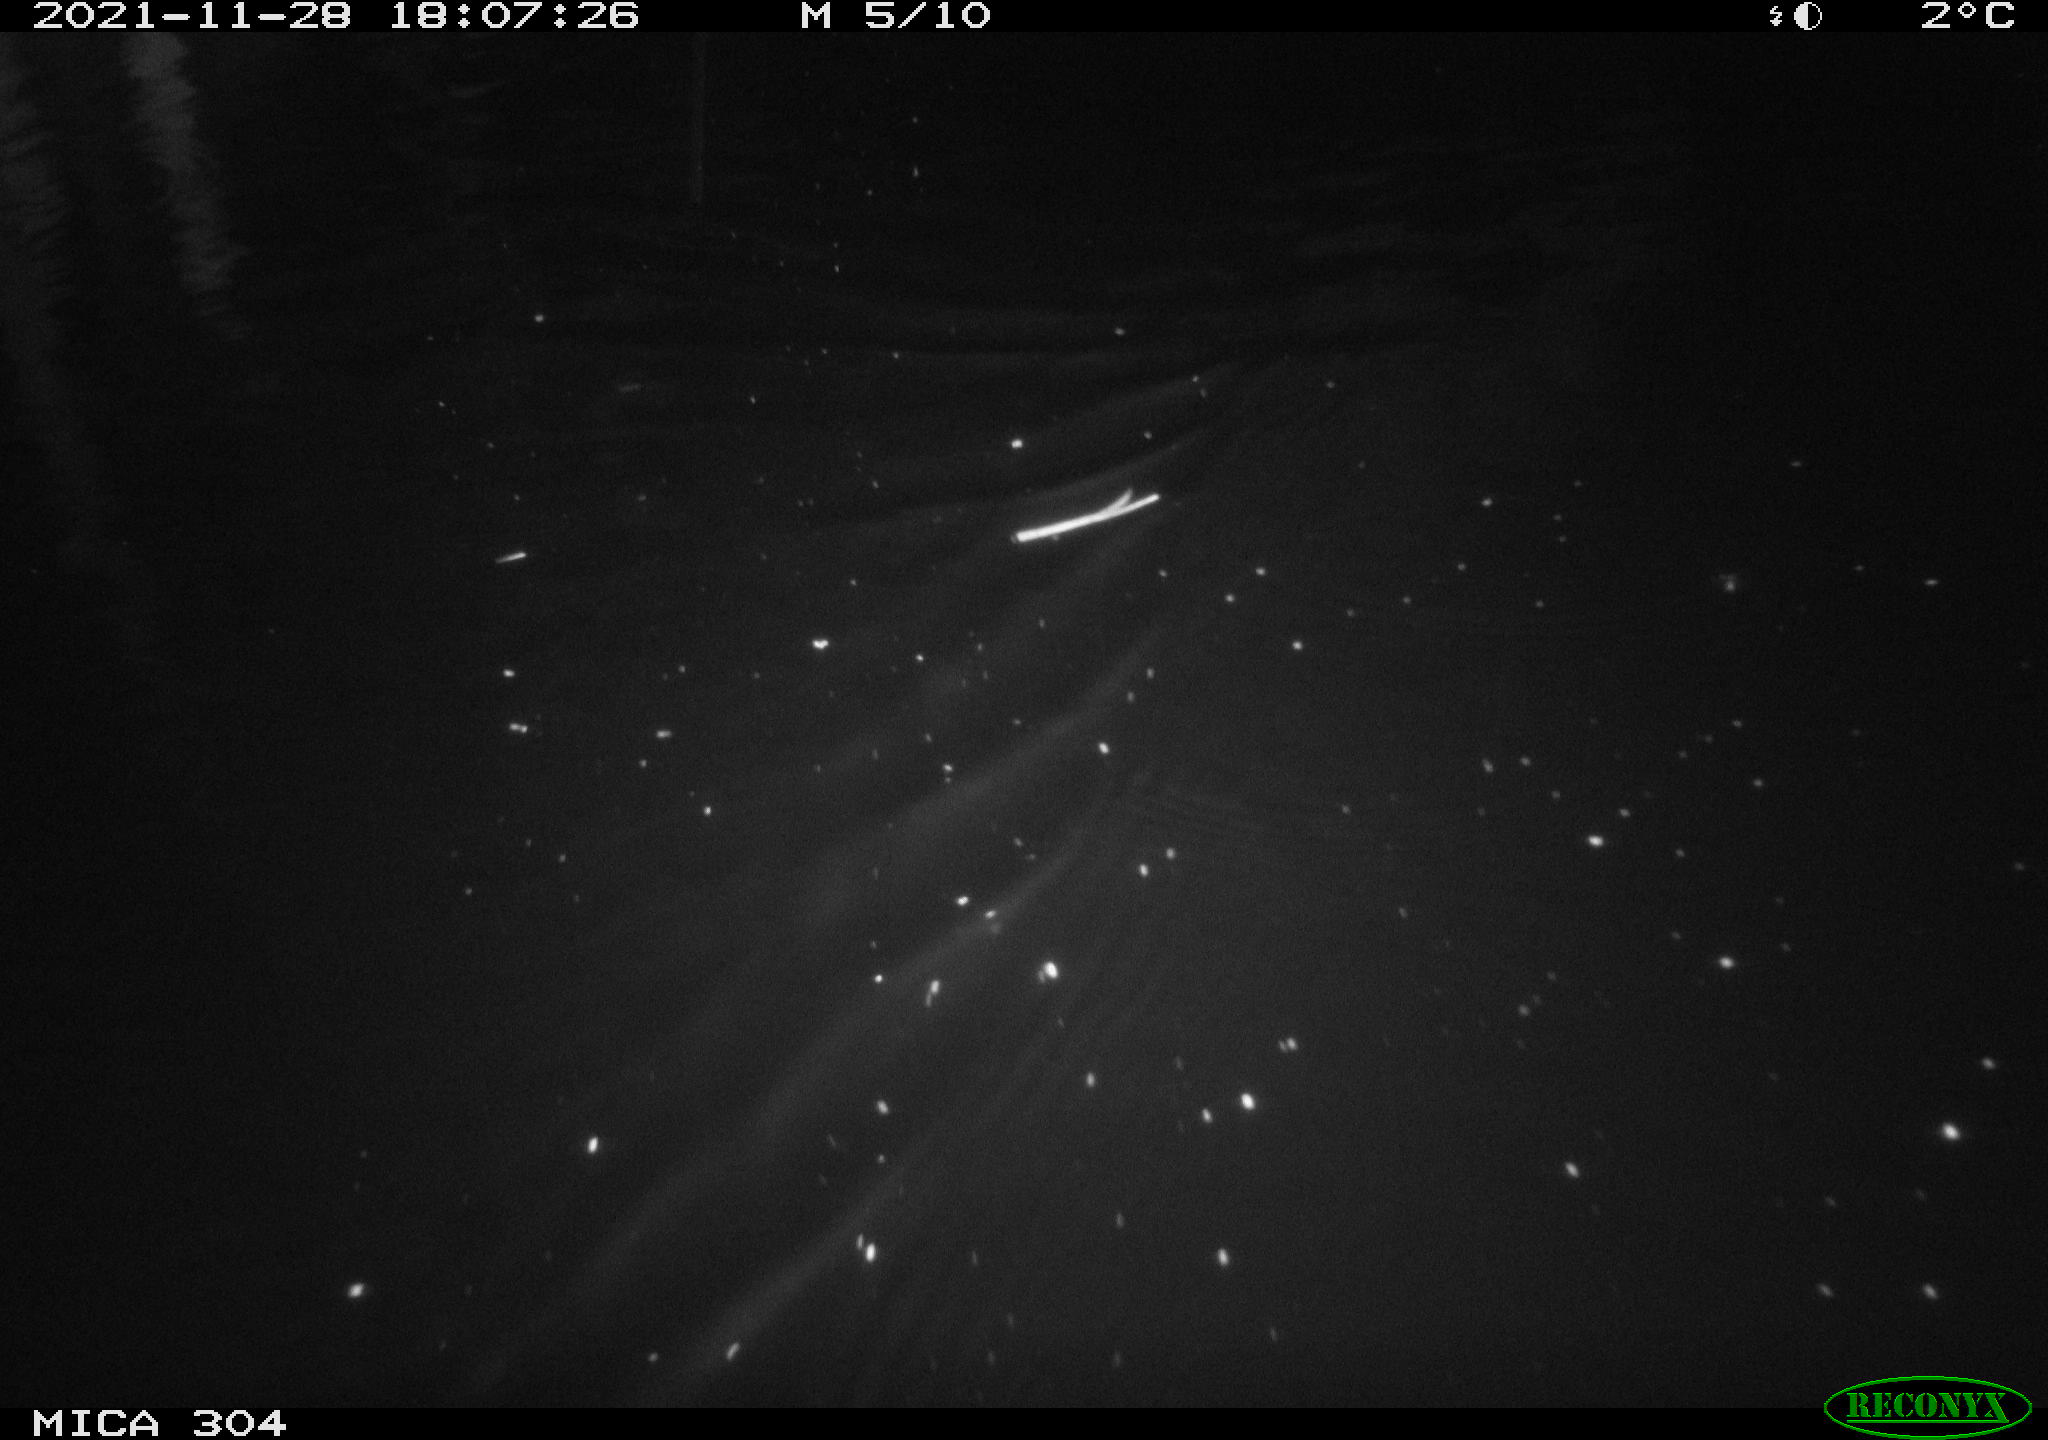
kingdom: Animalia
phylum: Chordata
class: Mammalia
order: Rodentia
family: Muridae
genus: Rattus
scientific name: Rattus norvegicus
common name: Brown rat
